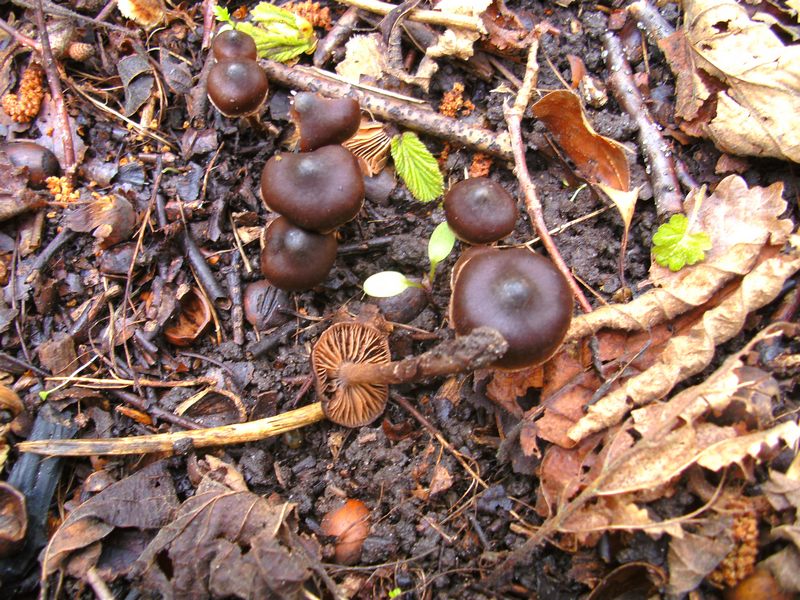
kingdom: Fungi
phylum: Basidiomycota
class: Agaricomycetes
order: Agaricales
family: Cortinariaceae
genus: Cortinarius
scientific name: Cortinarius vernus
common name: sommer-slørhat
